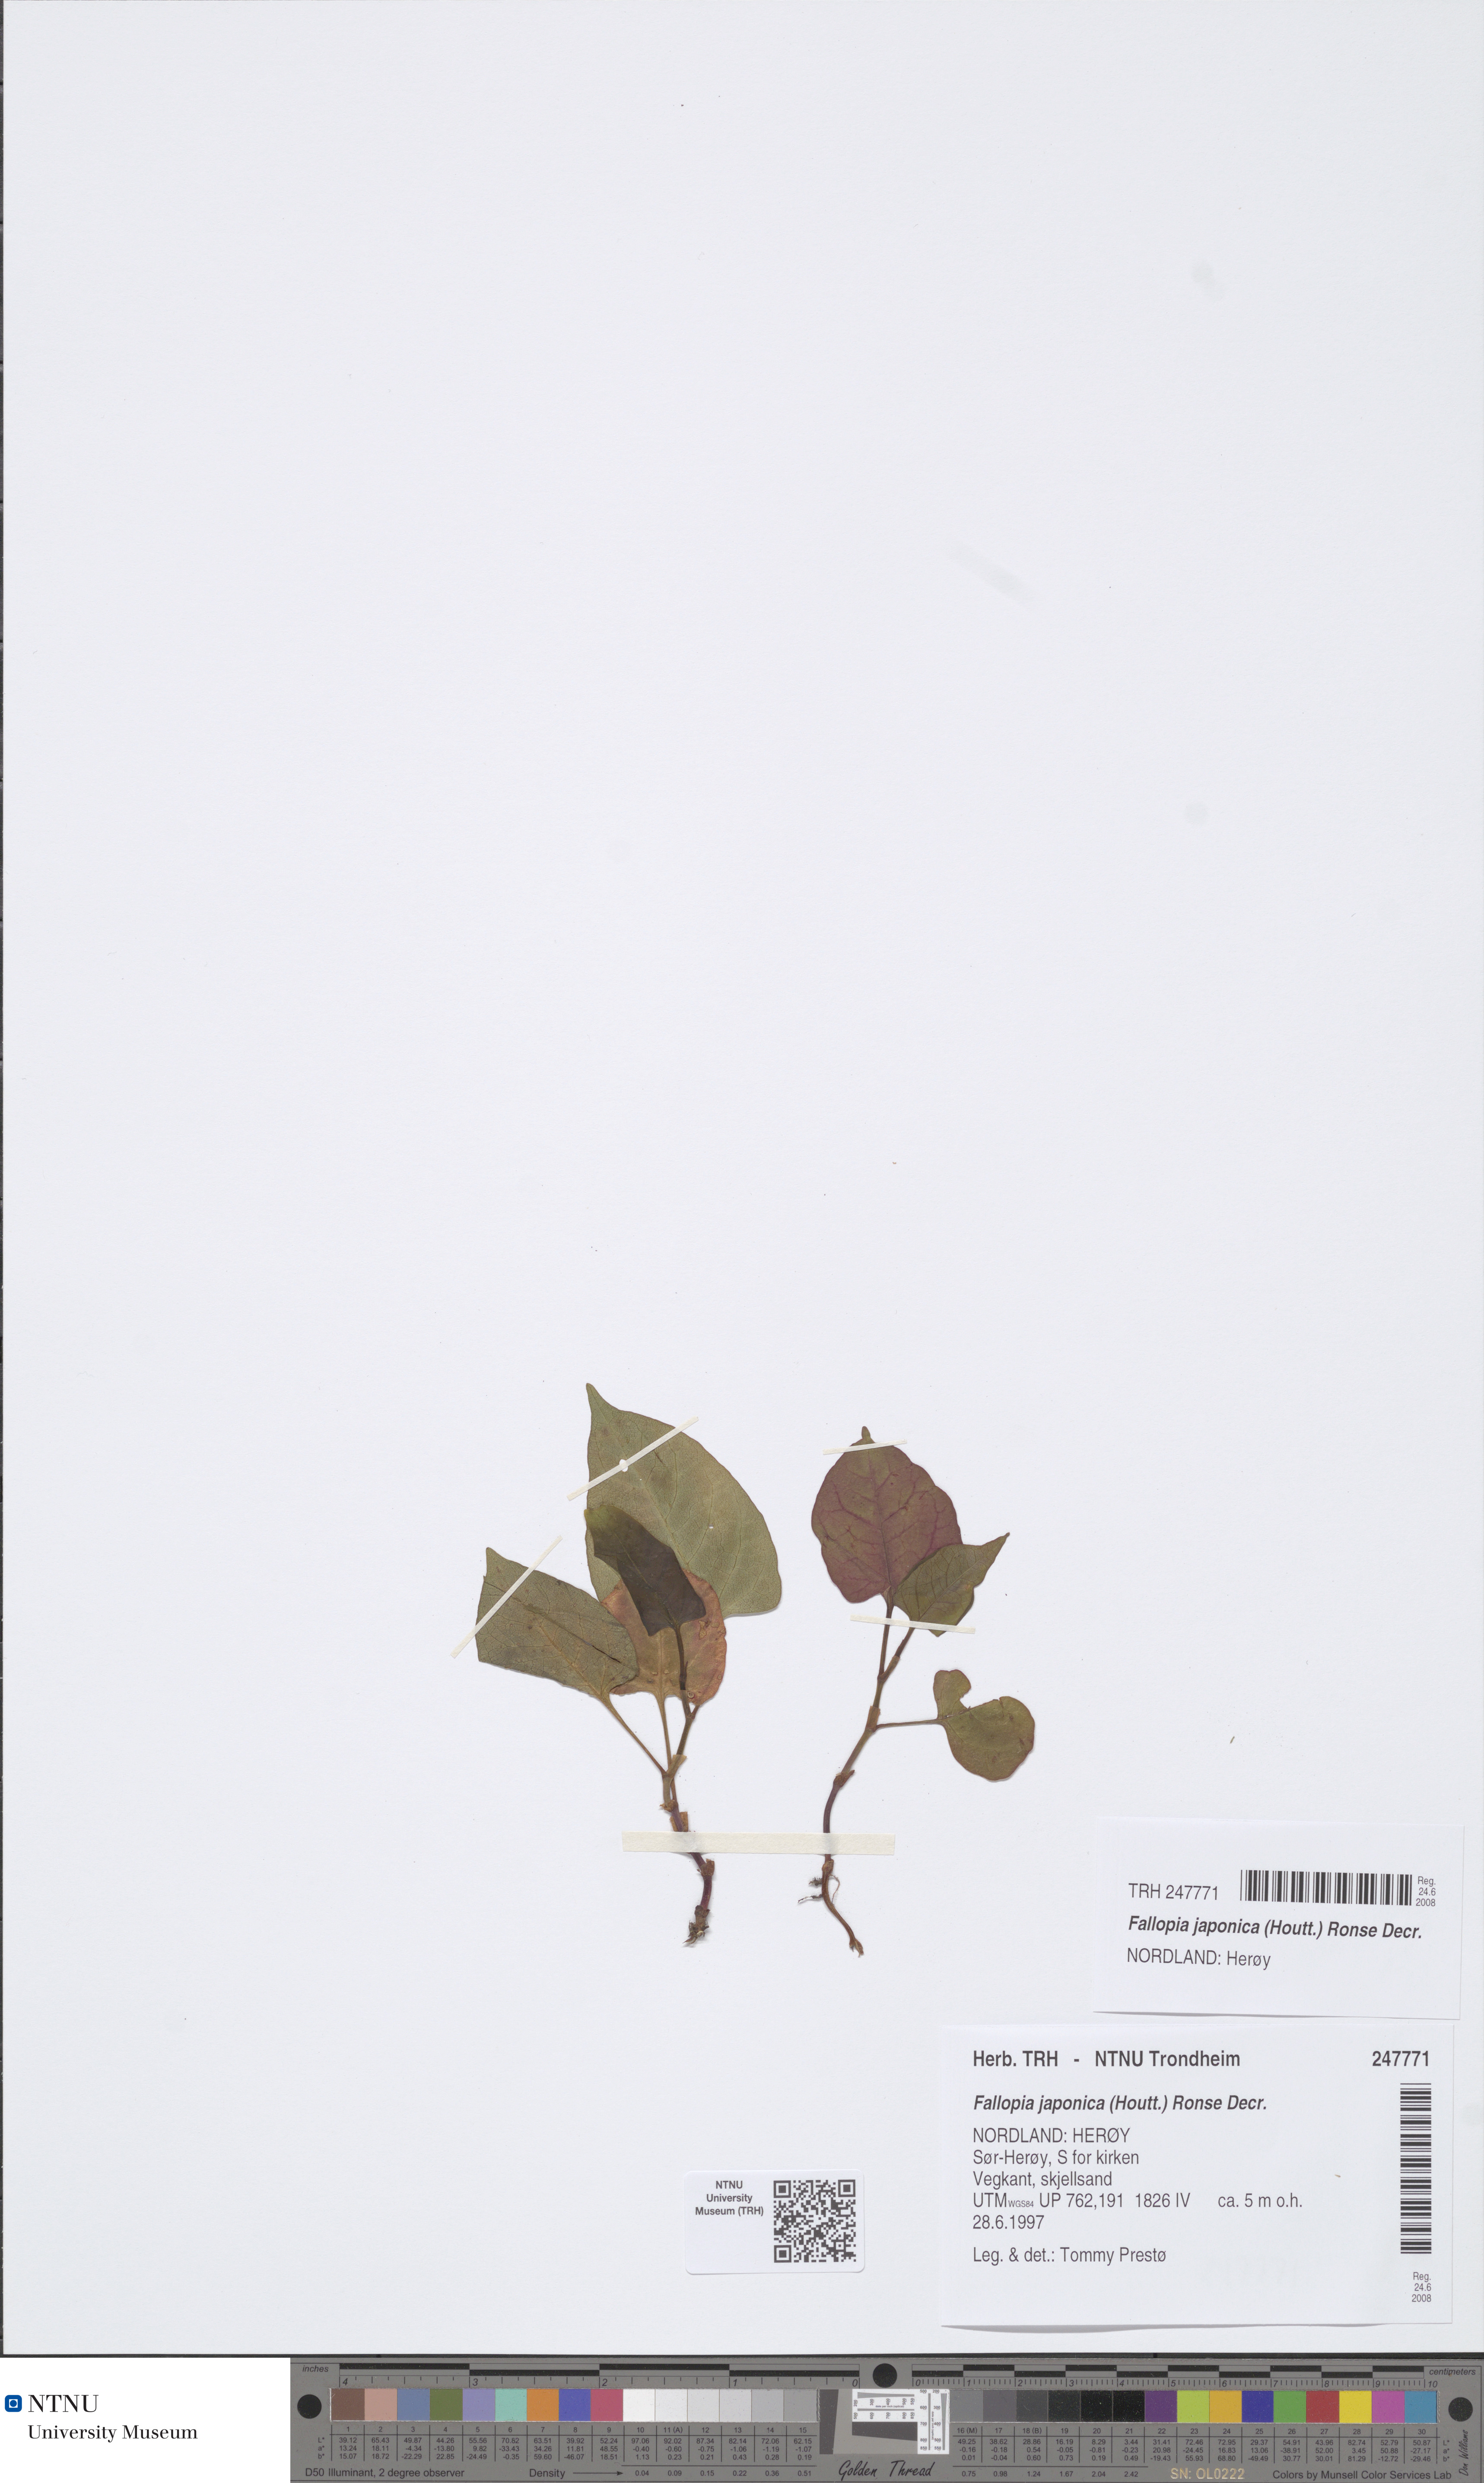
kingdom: Plantae
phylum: Tracheophyta
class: Magnoliopsida
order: Caryophyllales
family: Polygonaceae
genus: Reynoutria
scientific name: Reynoutria japonica
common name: Japanese knotweed
